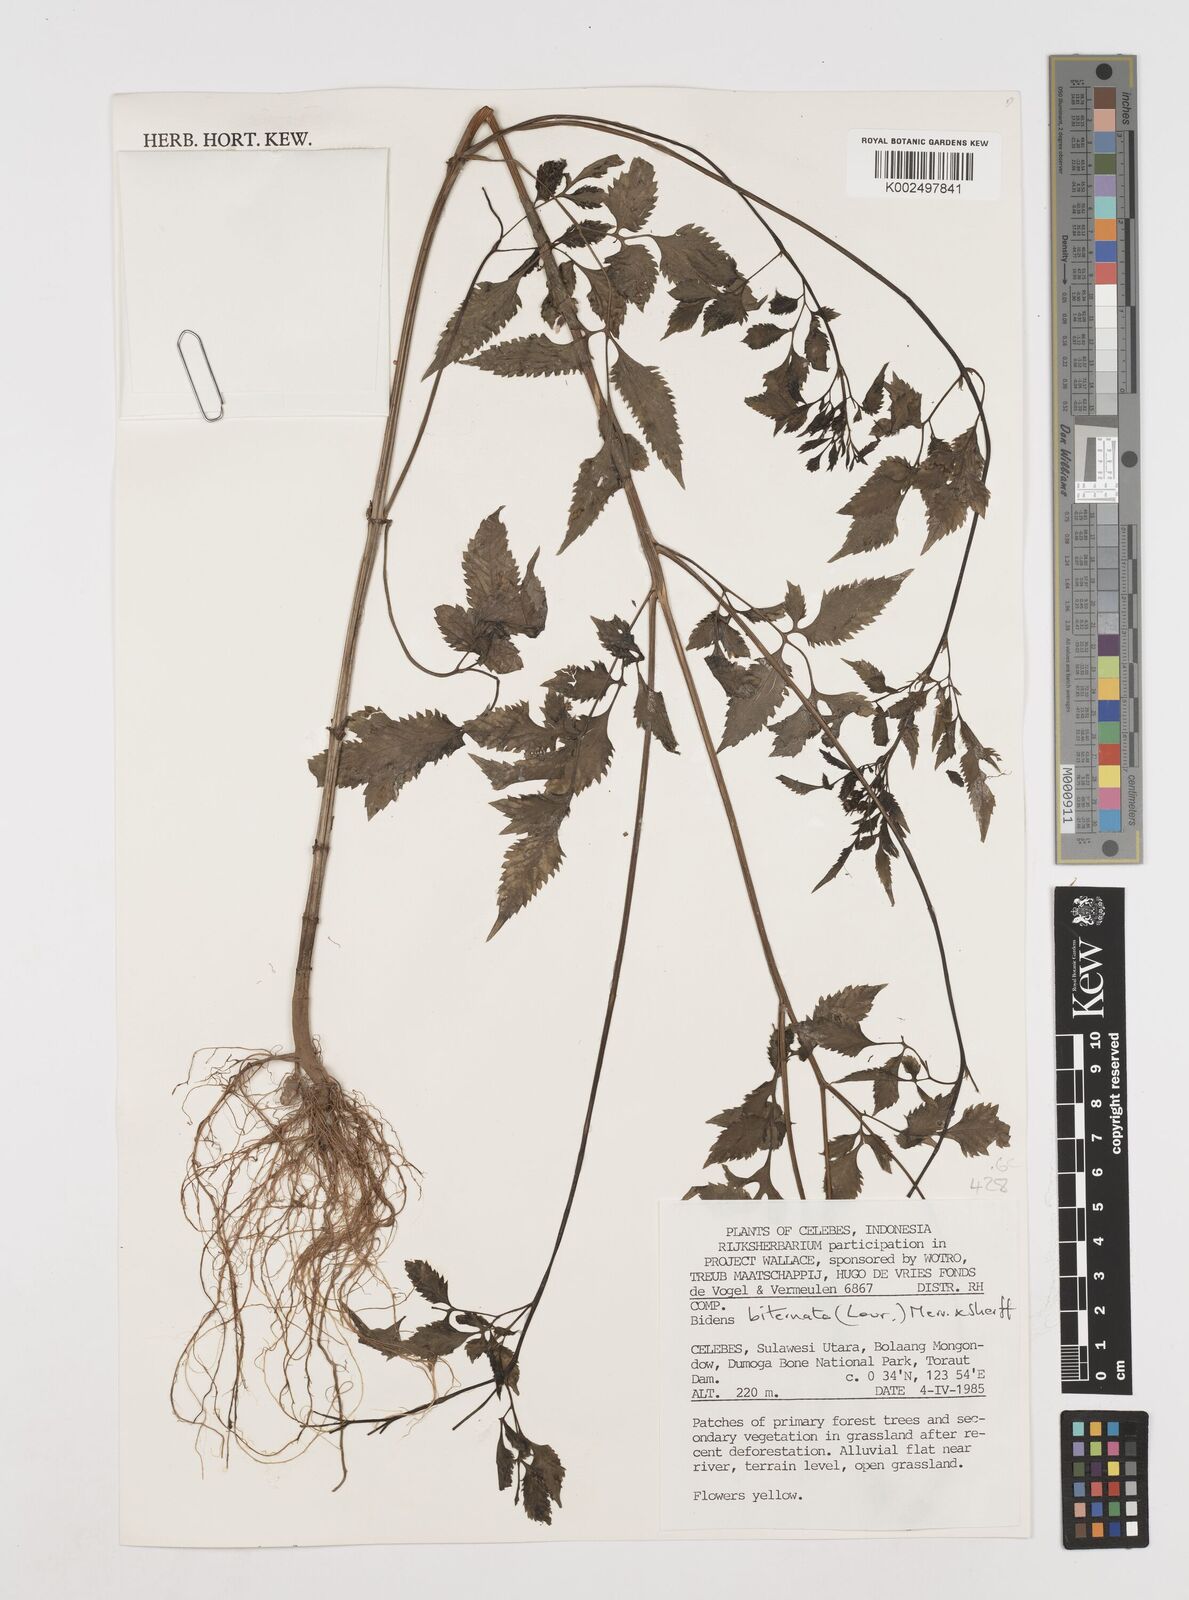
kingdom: Plantae
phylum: Tracheophyta
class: Magnoliopsida
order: Asterales
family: Asteraceae
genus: Bidens
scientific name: Bidens biternata
